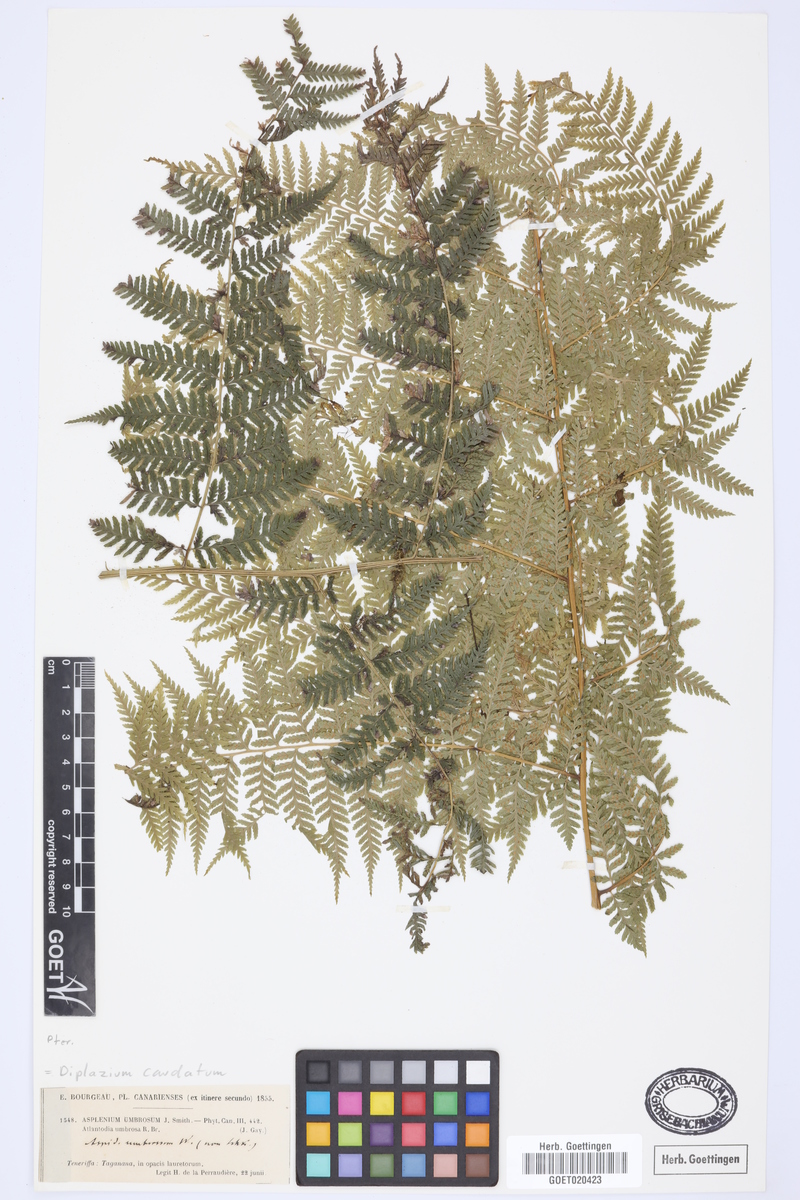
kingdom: Plantae
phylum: Tracheophyta
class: Polypodiopsida
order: Polypodiales
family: Athyriaceae
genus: Diplazium
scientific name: Diplazium caudatum
